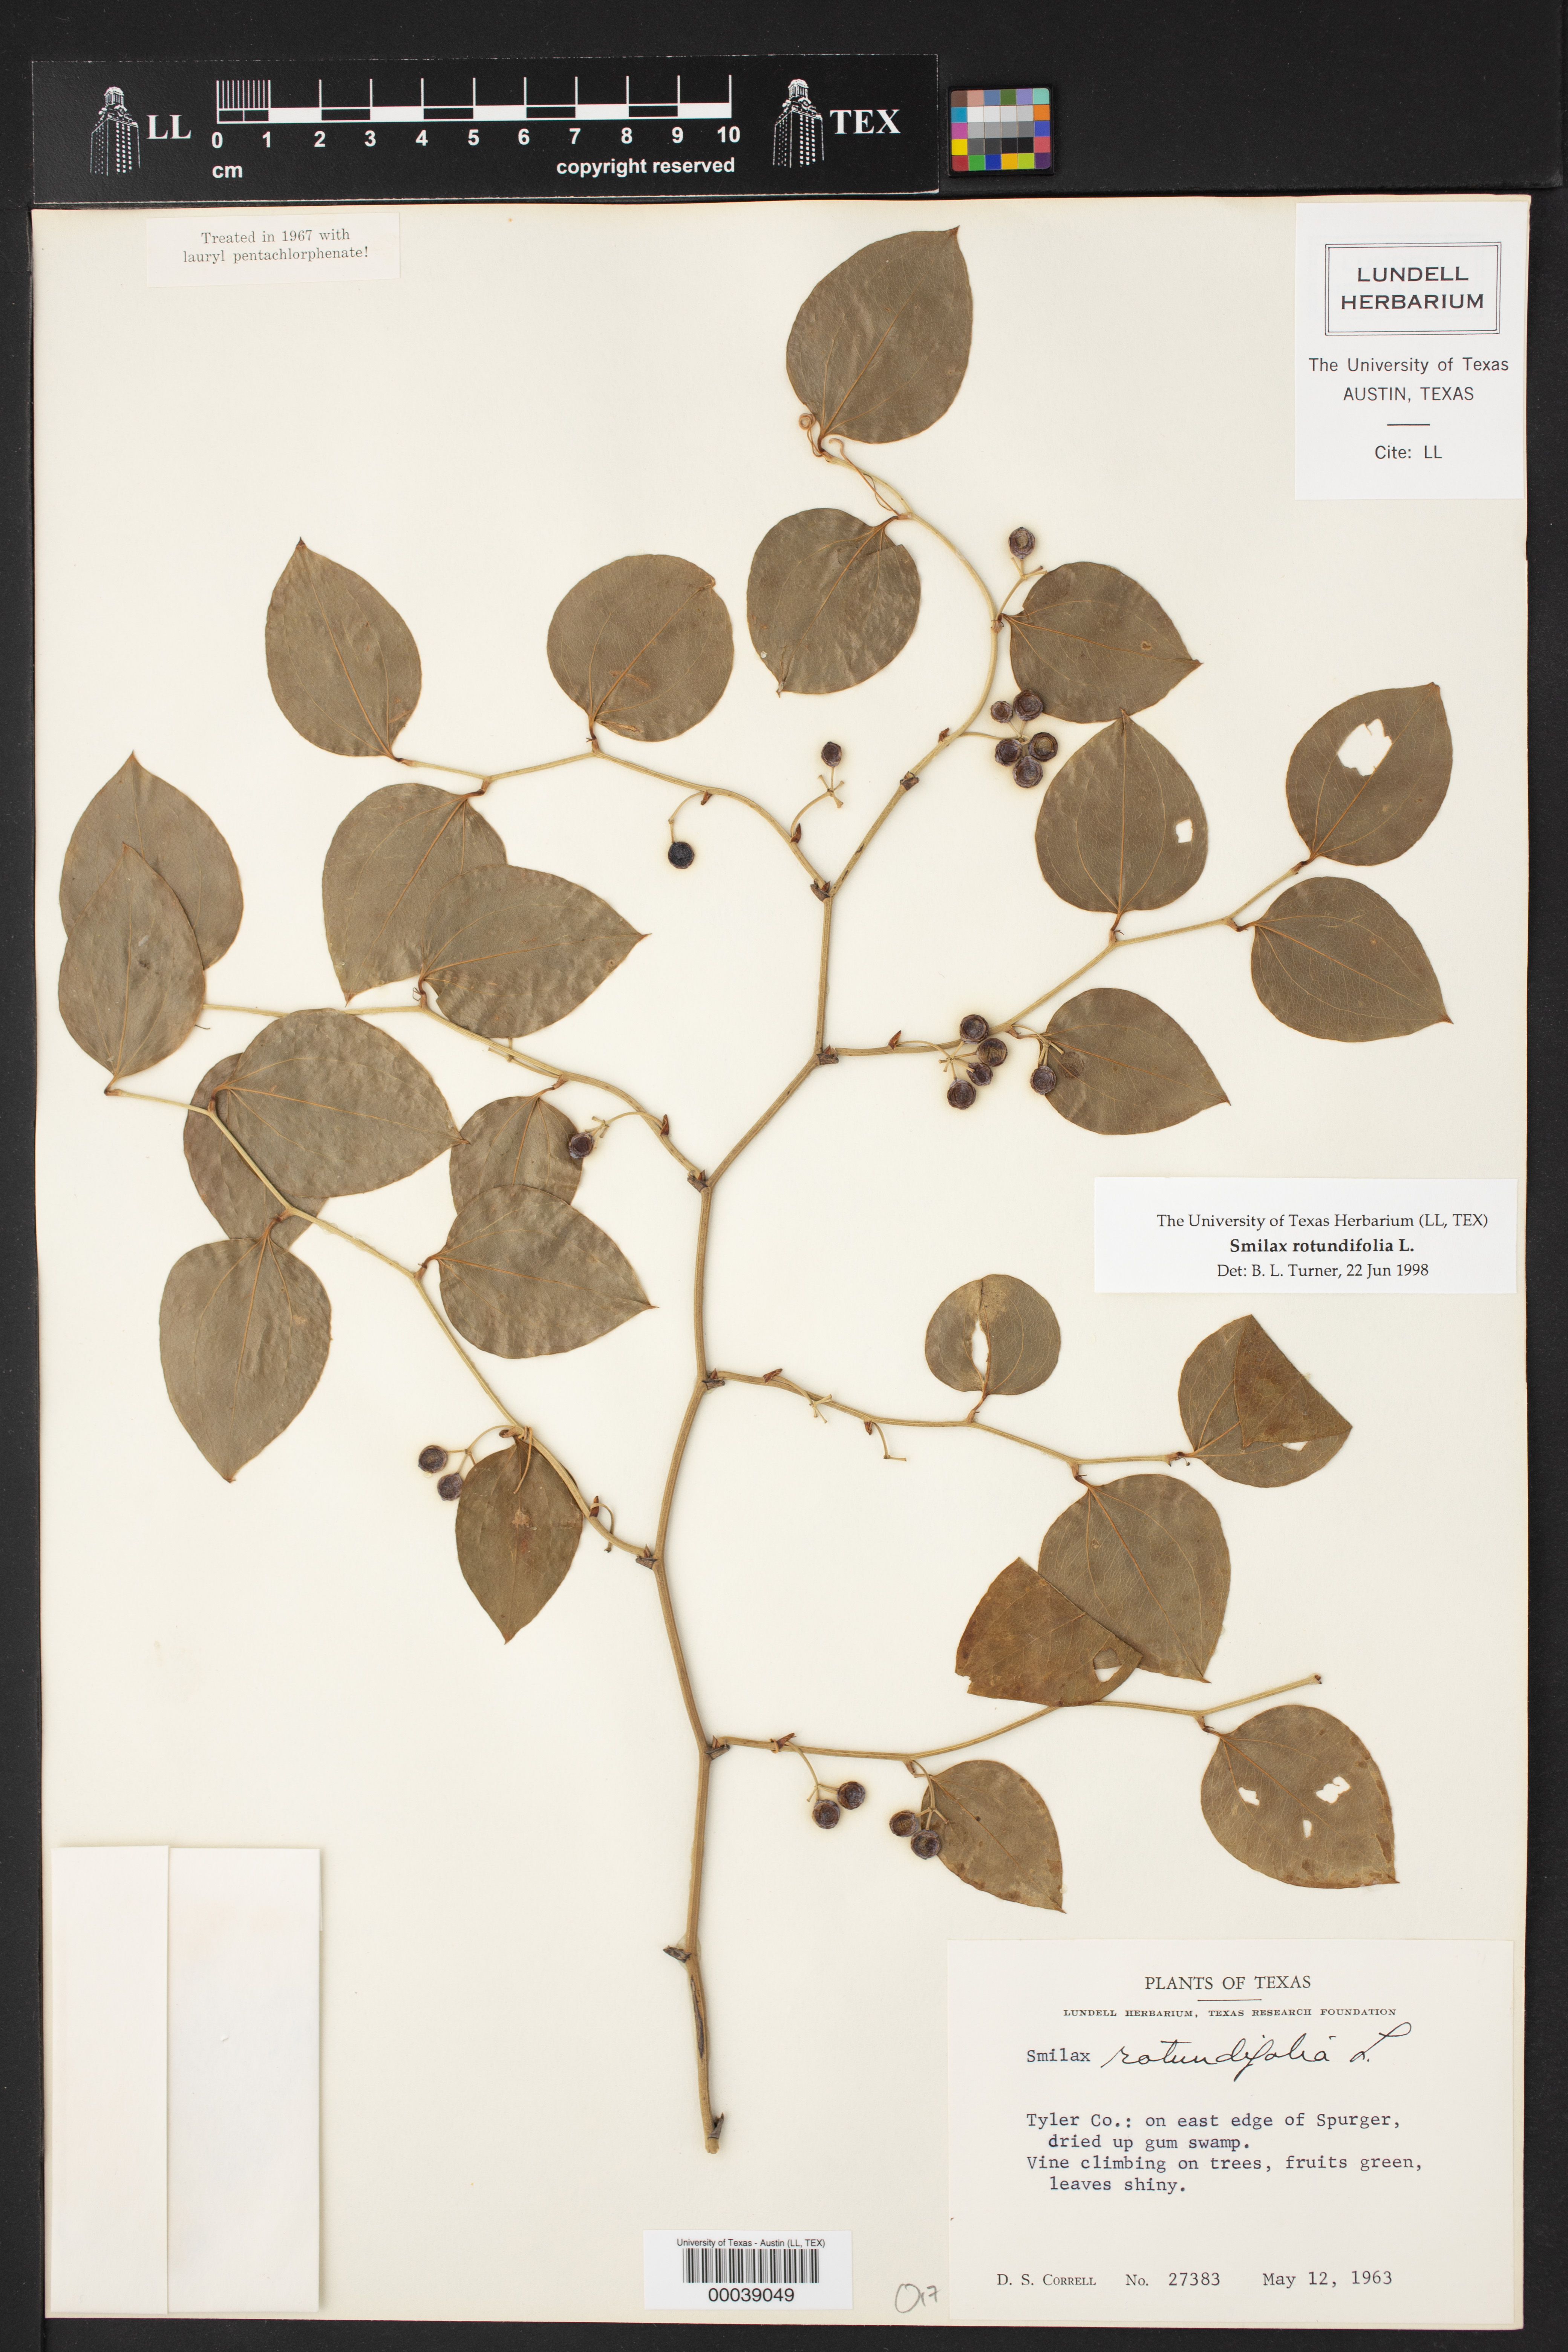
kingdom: Plantae
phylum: Tracheophyta
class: Liliopsida
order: Liliales
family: Smilacaceae
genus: Smilax
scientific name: Smilax rotundifolia
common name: Bullbriar
